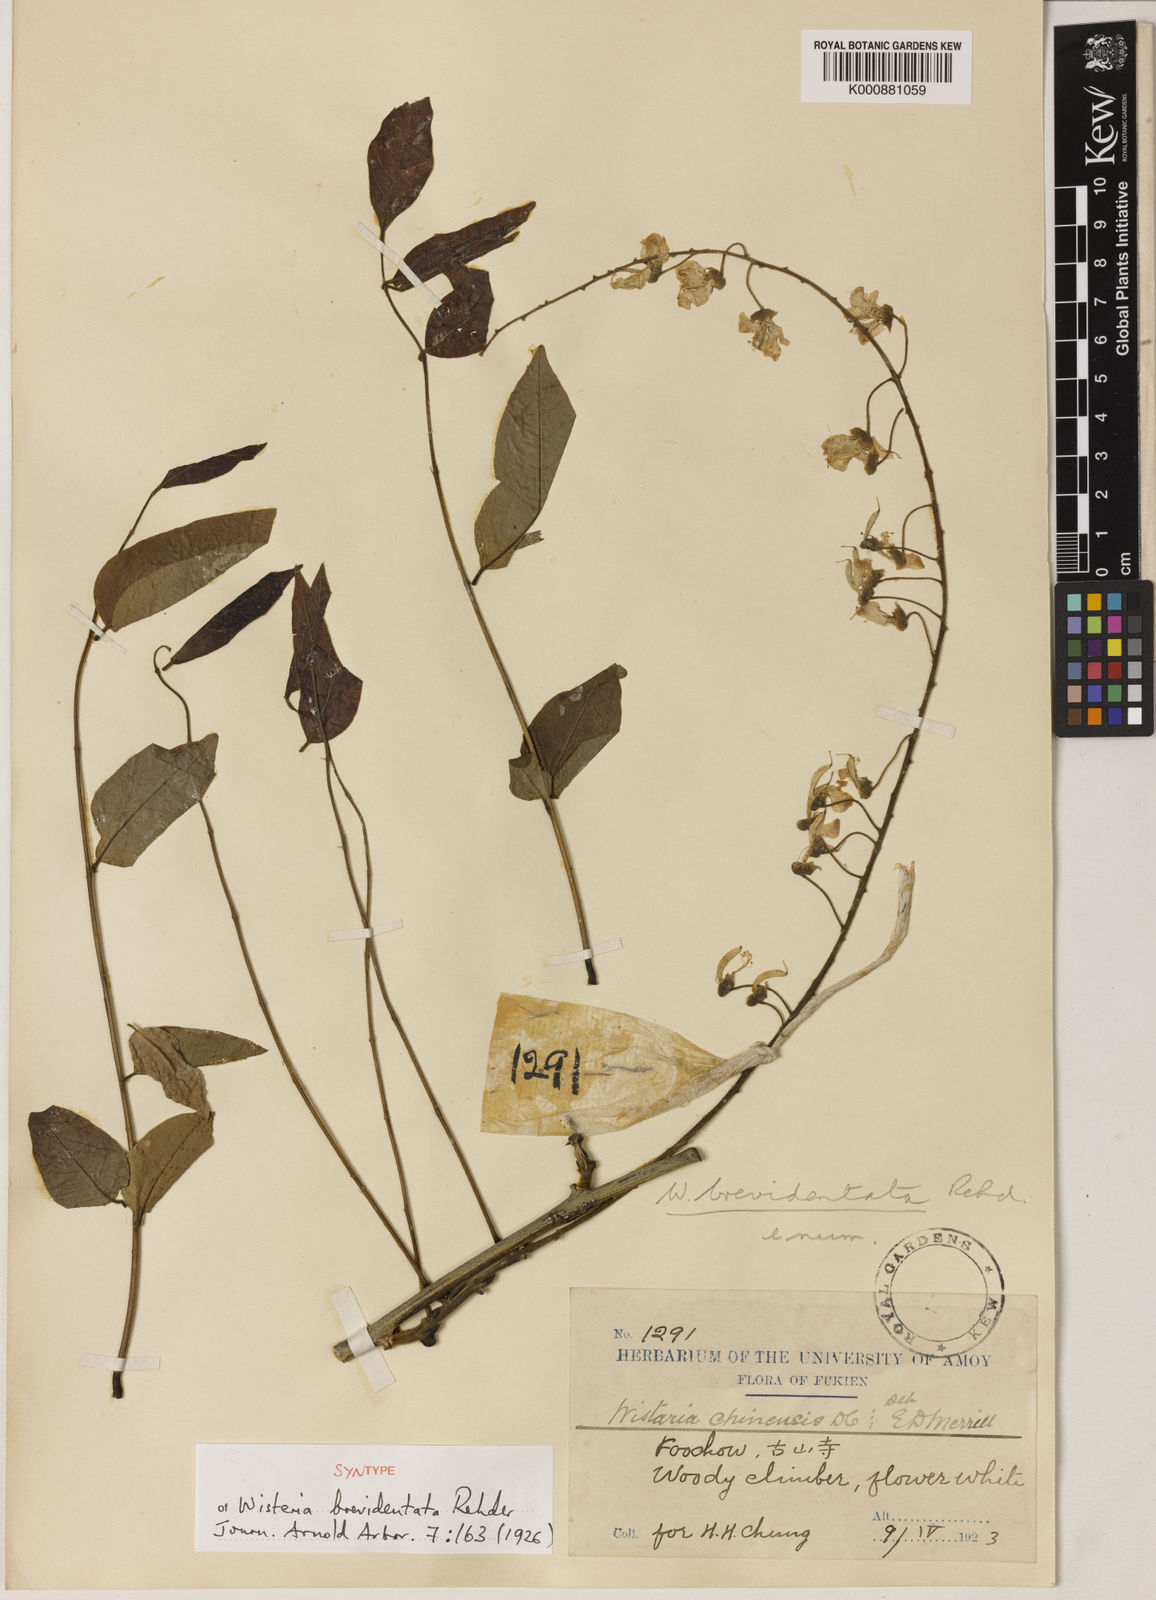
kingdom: Plantae
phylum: Tracheophyta
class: Magnoliopsida
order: Fabales
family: Fabaceae
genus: Wisteria
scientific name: Wisteria sinensis
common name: Chinese wisteria
